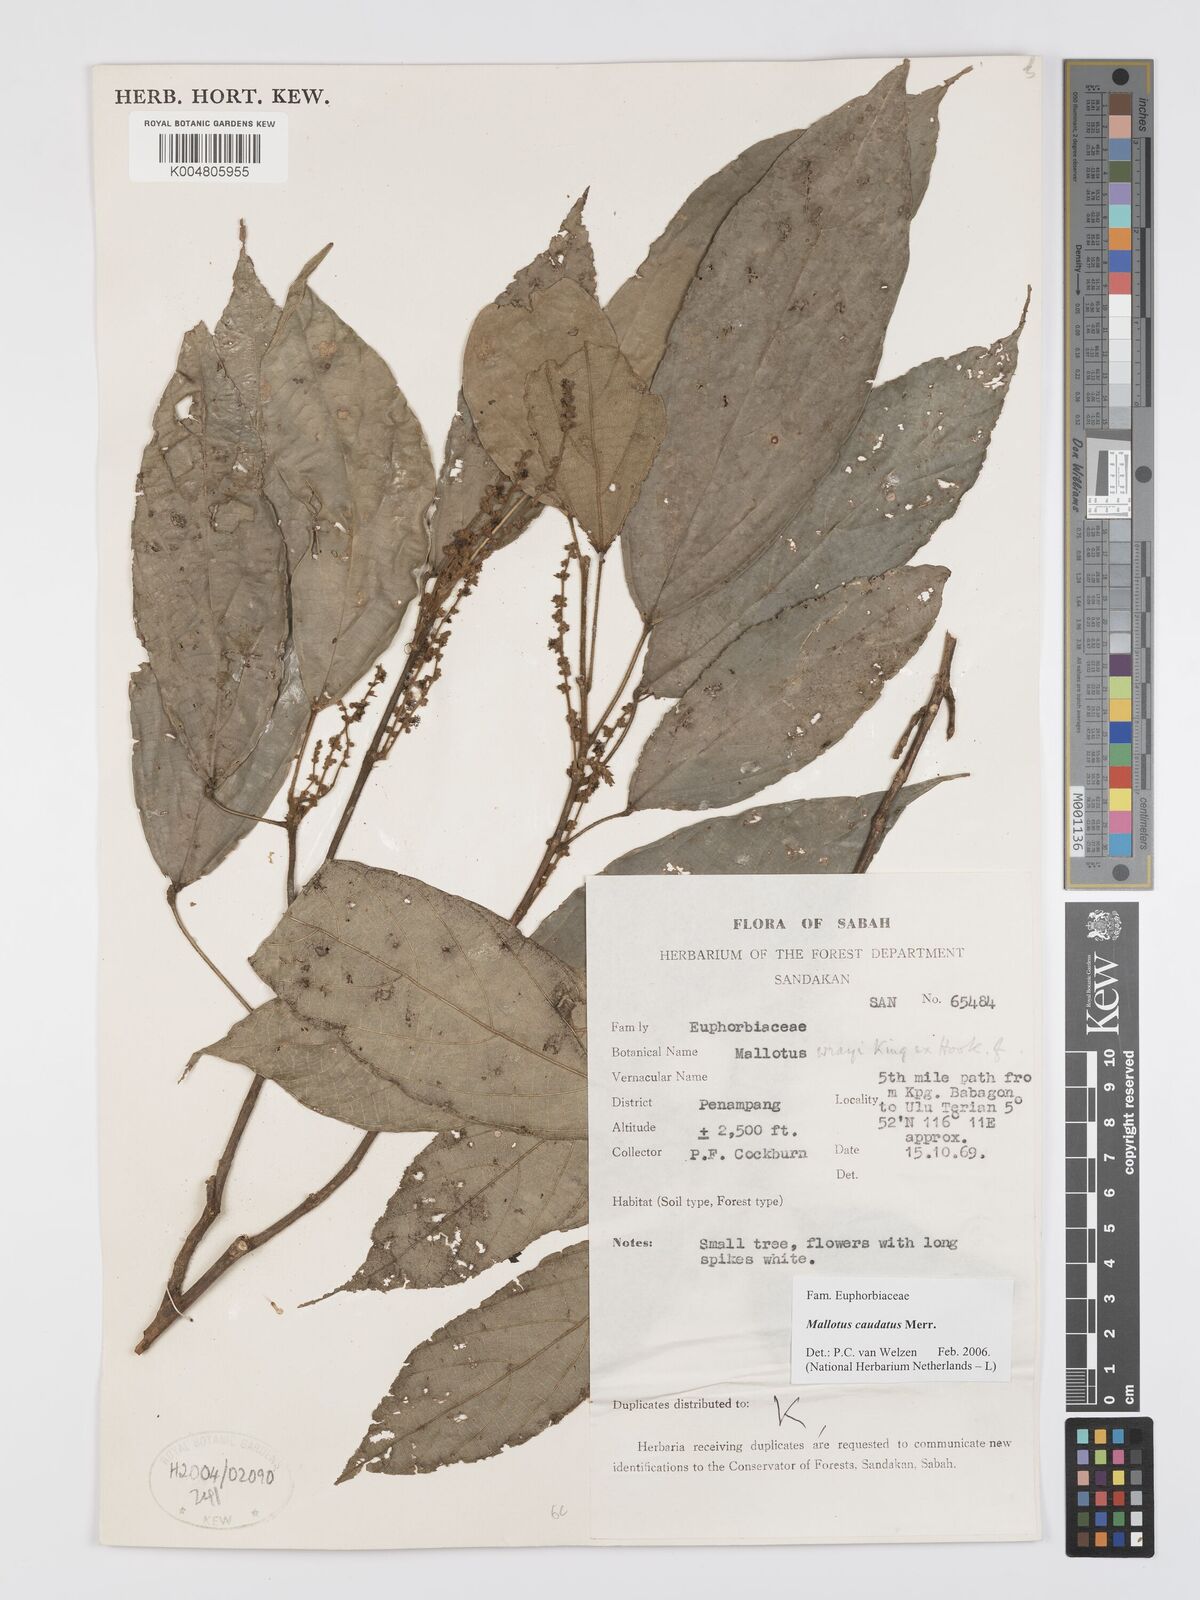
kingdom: Plantae
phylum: Tracheophyta
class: Magnoliopsida
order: Malpighiales
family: Euphorbiaceae
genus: Mallotus
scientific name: Mallotus caudatus
